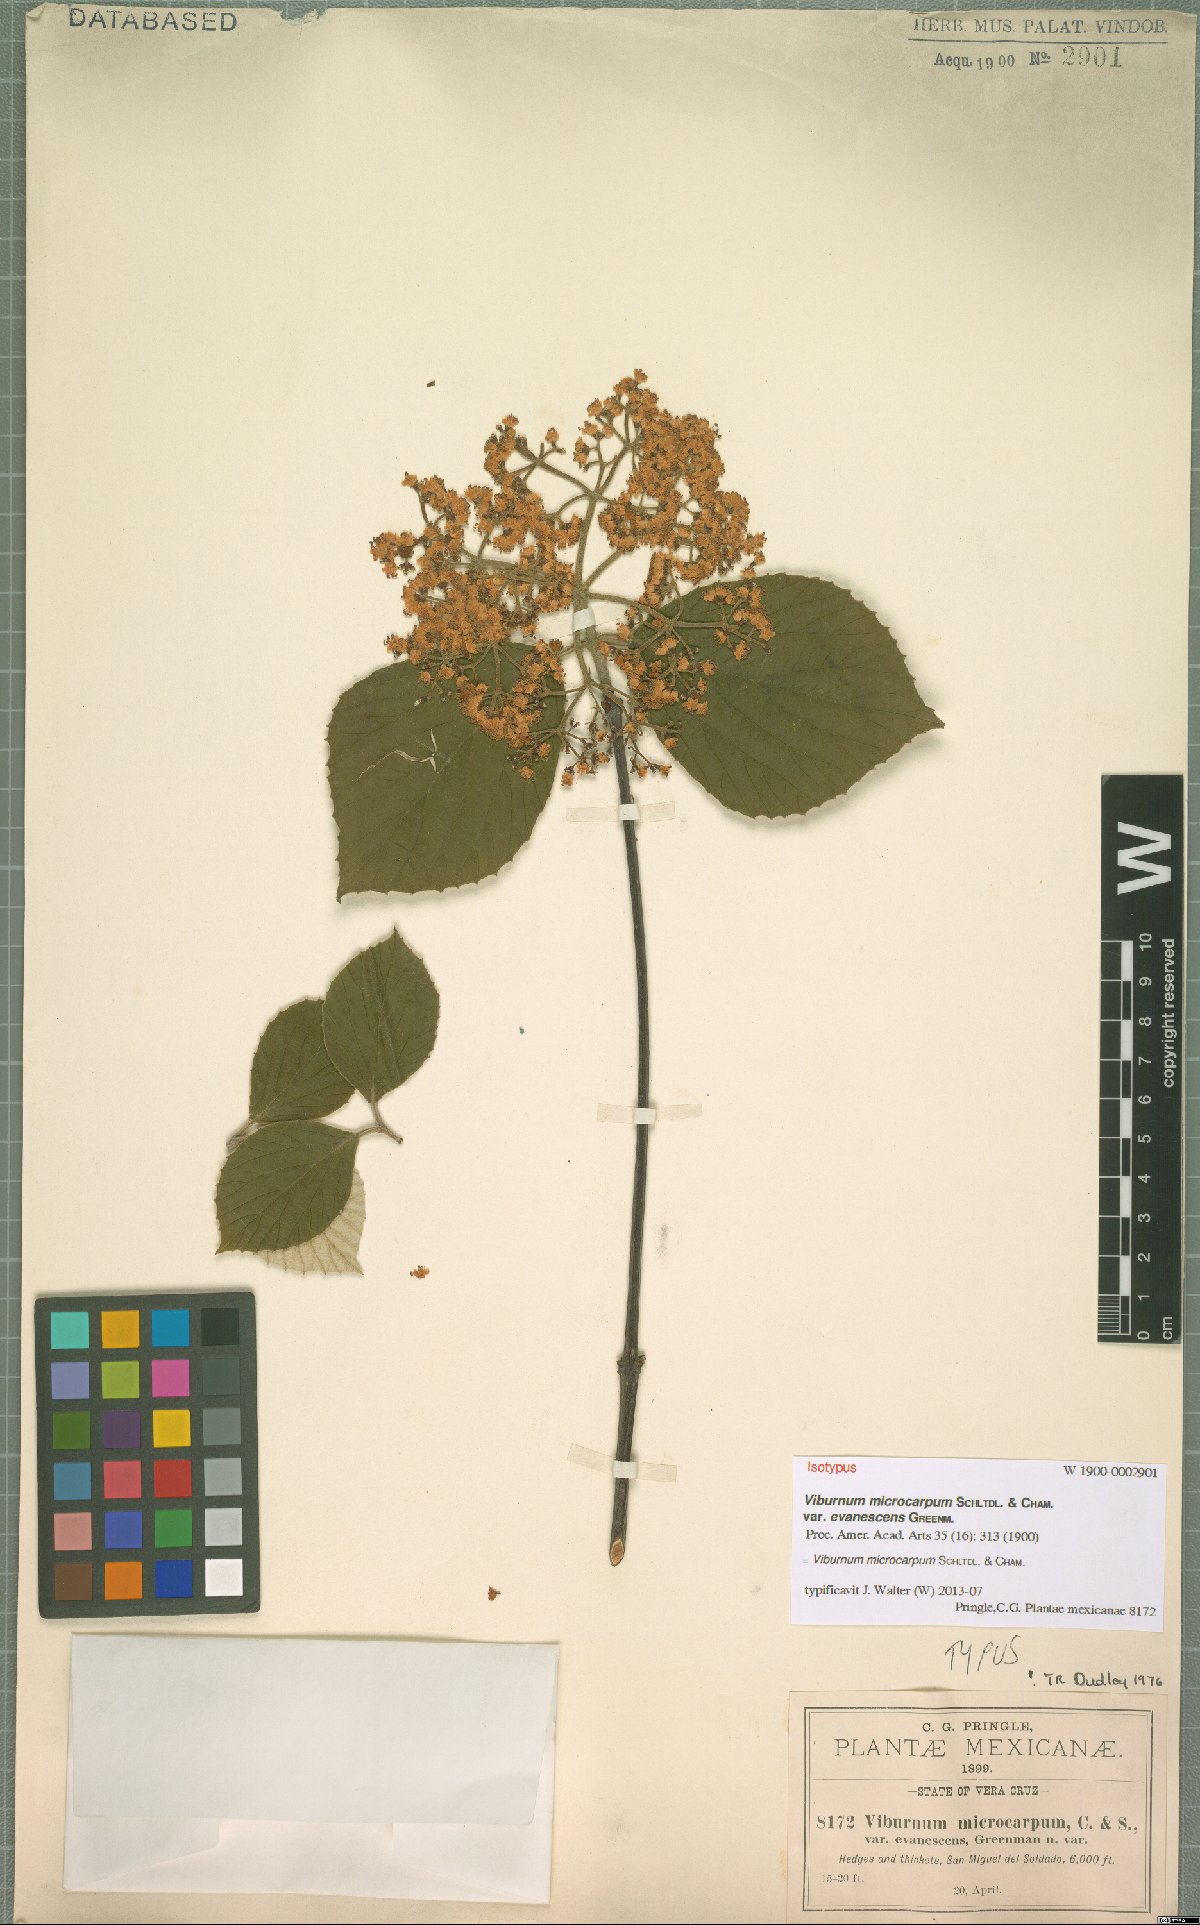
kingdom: Plantae
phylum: Tracheophyta
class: Magnoliopsida
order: Dipsacales
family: Viburnaceae
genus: Viburnum
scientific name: Viburnum microcarpum
